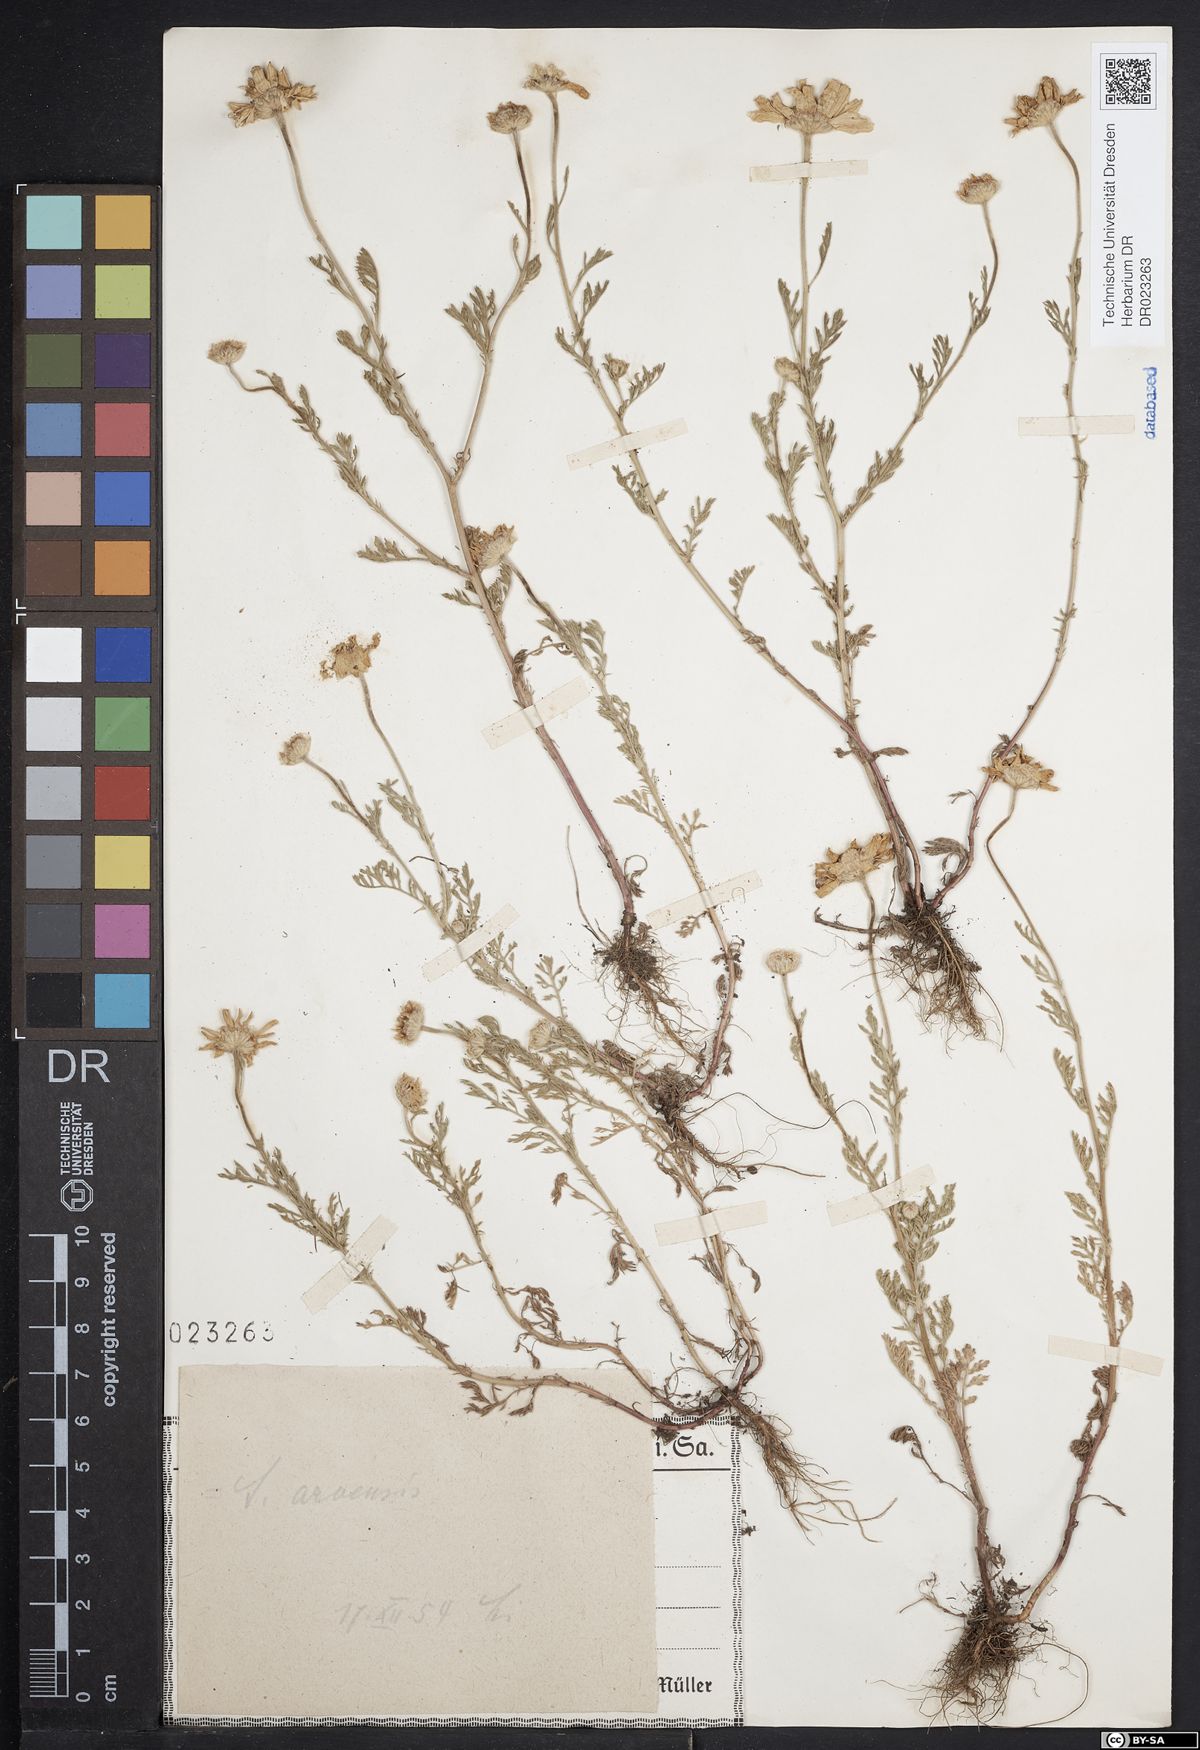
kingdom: Plantae
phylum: Tracheophyta
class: Magnoliopsida
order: Asterales
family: Asteraceae
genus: Anthemis
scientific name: Anthemis arvensis
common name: Corn chamomile
